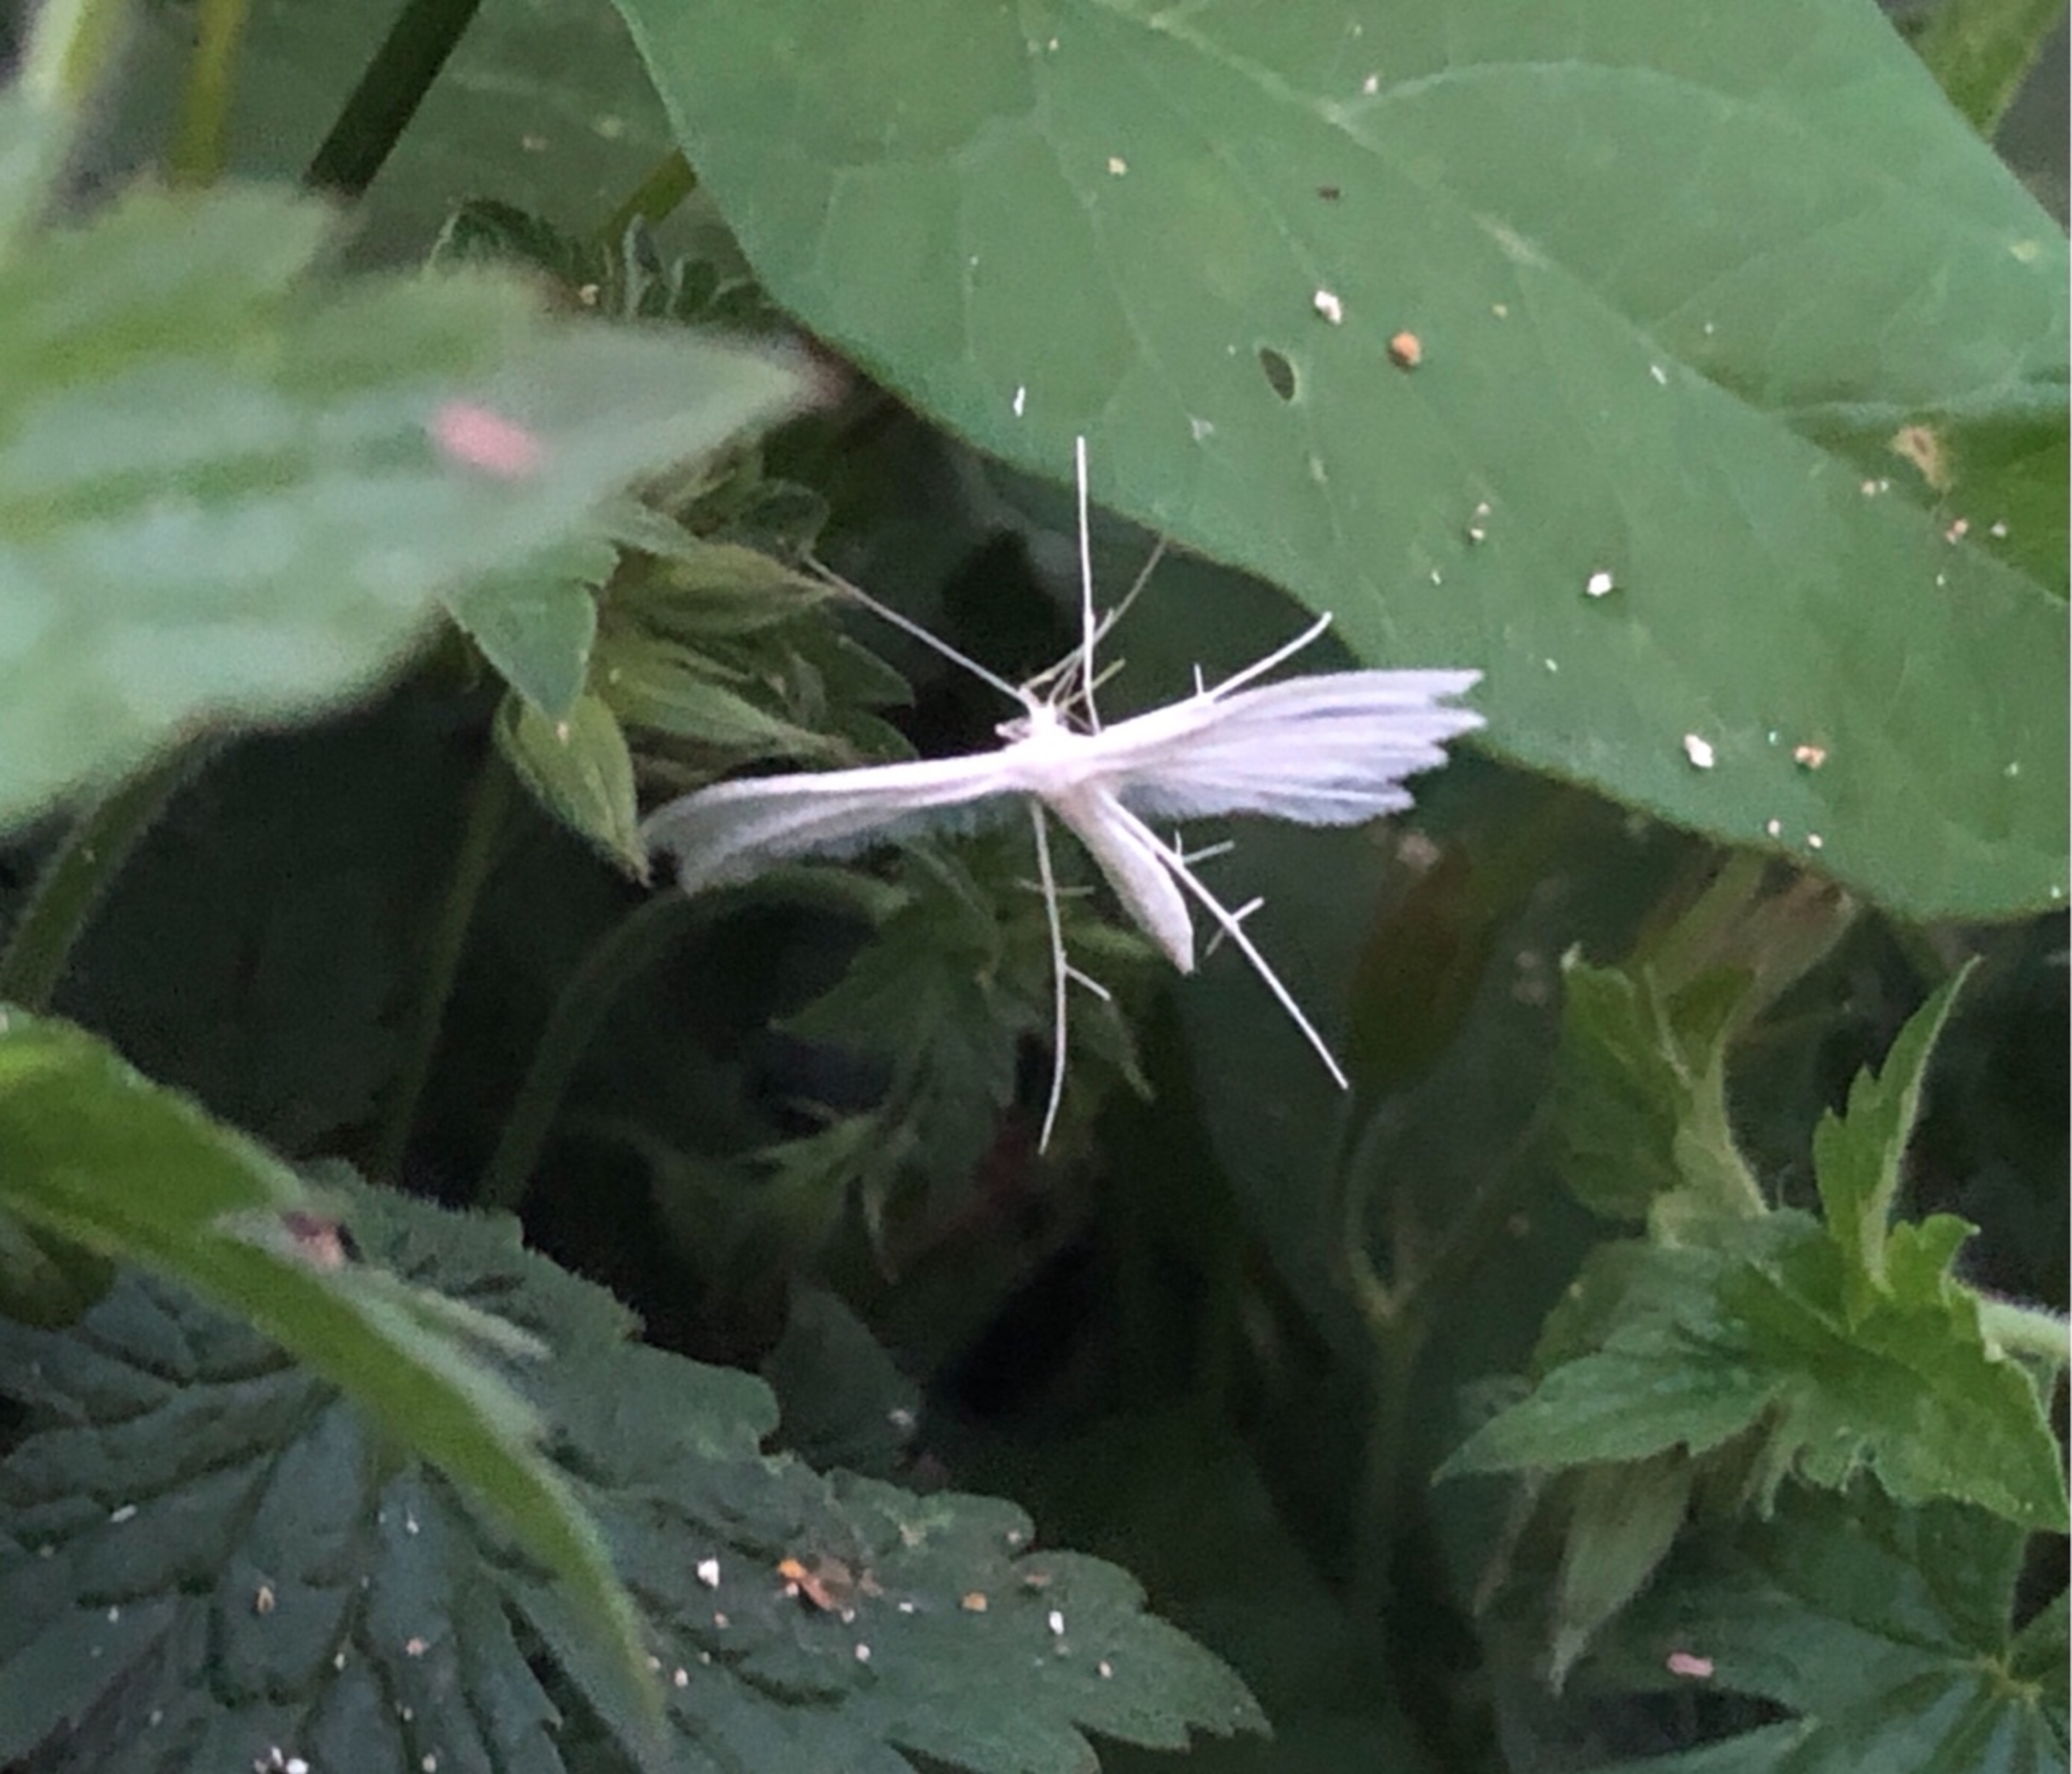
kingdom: Animalia
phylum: Arthropoda
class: Insecta
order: Lepidoptera
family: Pterophoridae
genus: Pterophorus
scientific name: Pterophorus pentadactyla
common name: Hvidt fjermøl
